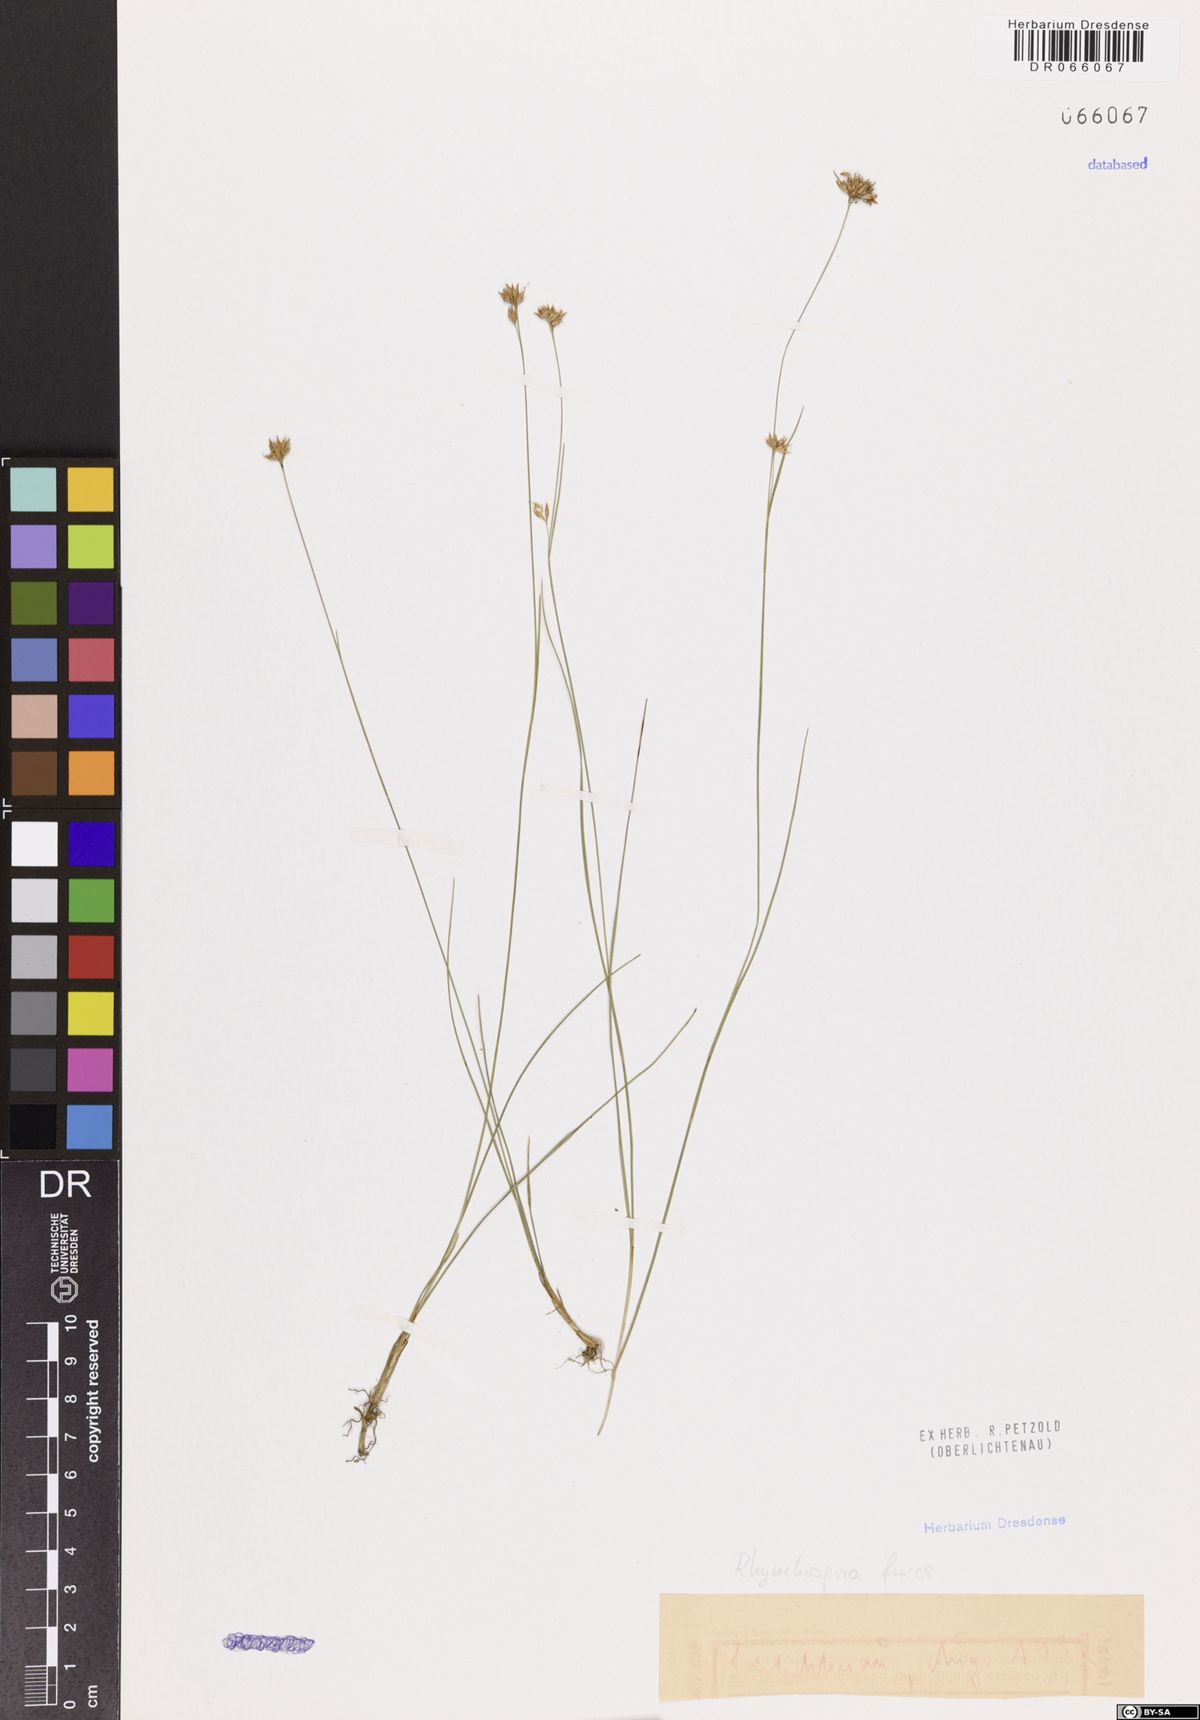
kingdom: Plantae
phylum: Tracheophyta
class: Liliopsida
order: Poales
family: Cyperaceae
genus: Rhynchospora
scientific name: Rhynchospora fusca
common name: Brown beak-sedge
